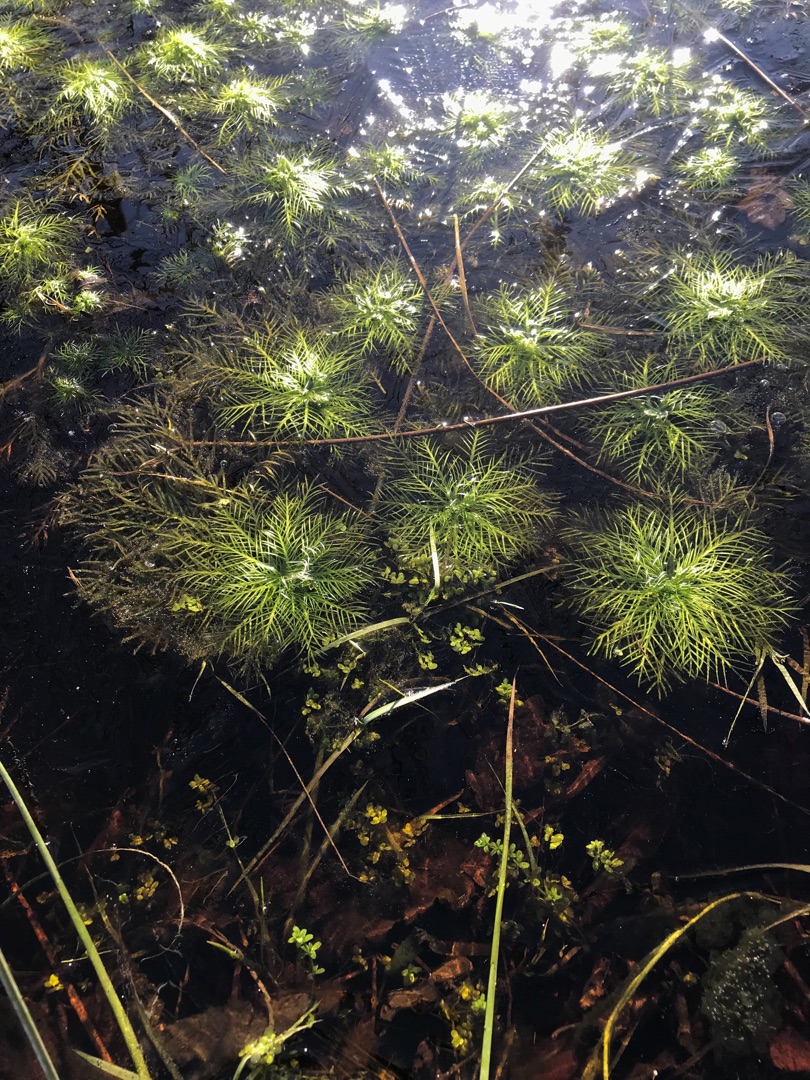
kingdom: Plantae
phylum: Tracheophyta
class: Magnoliopsida
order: Ericales
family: Primulaceae
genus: Hottonia
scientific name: Hottonia palustris
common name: Vandrøllike
